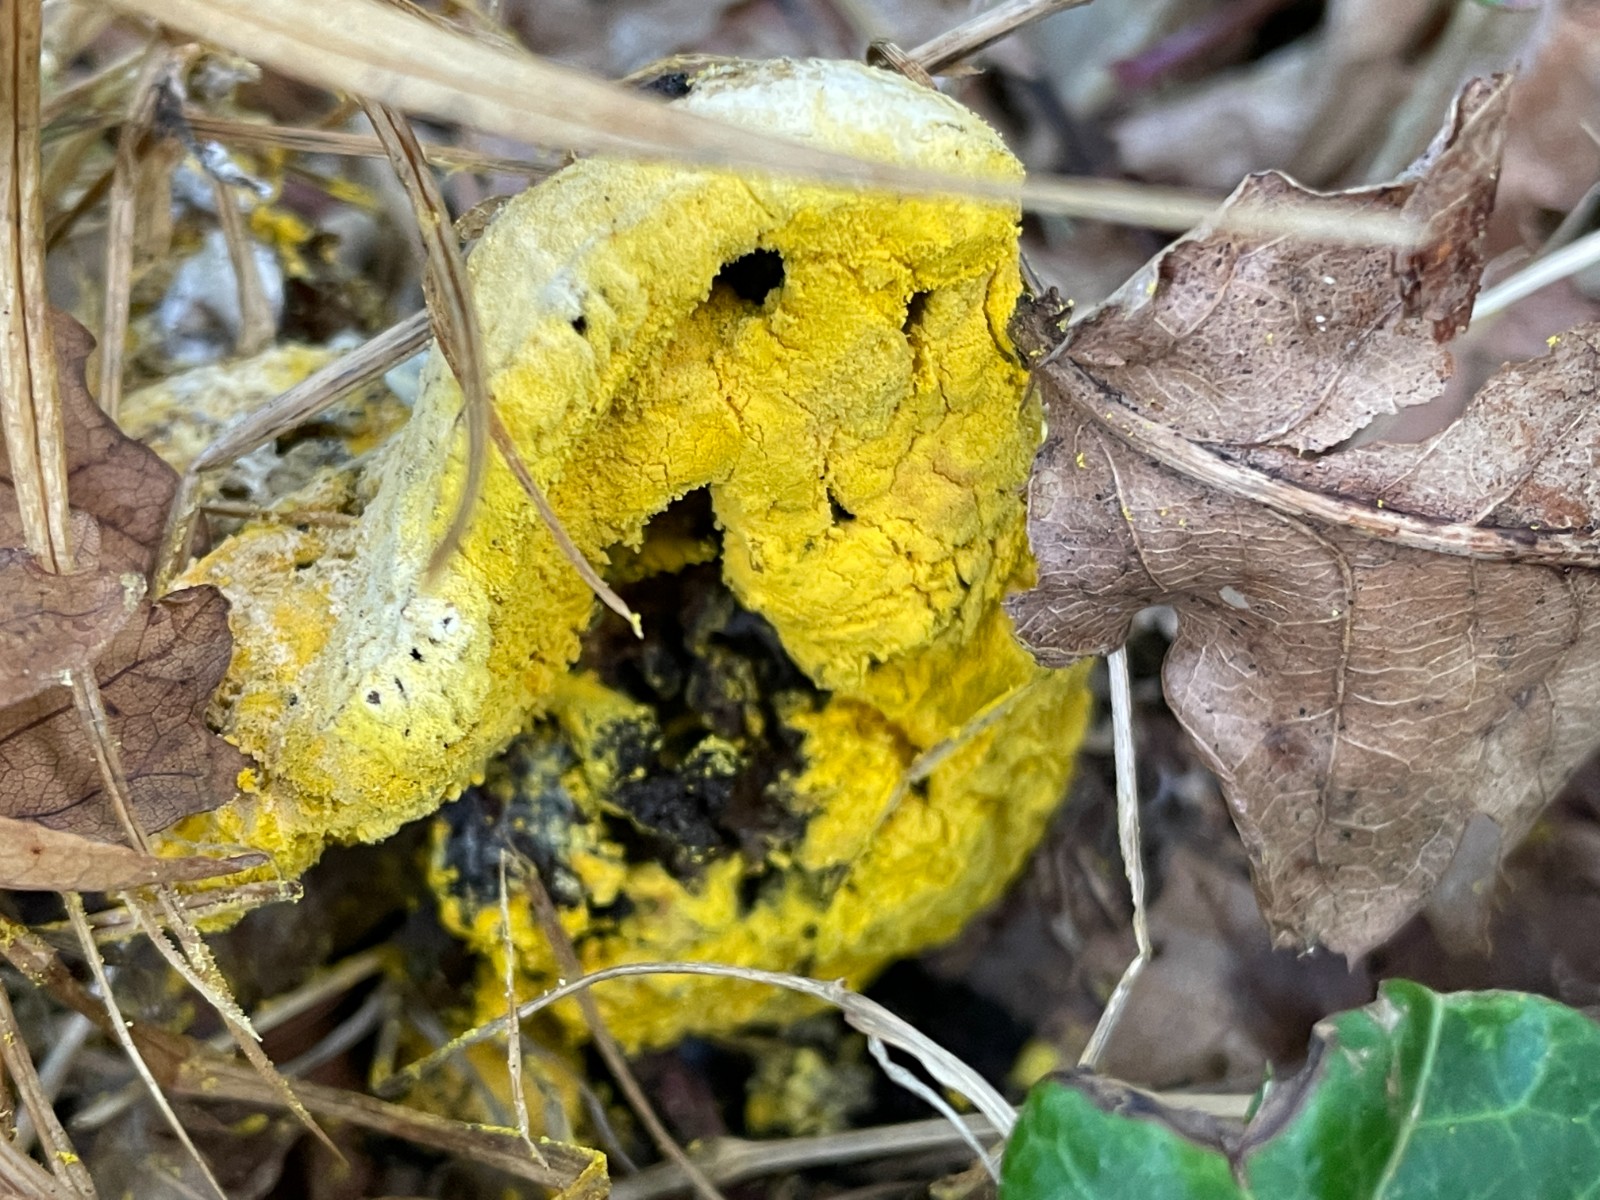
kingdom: Fungi
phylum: Ascomycota
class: Sordariomycetes
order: Hypocreales
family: Hypocreaceae
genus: Hypomyces
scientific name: Hypomyces microspermus
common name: dværgrørhat-snylteskorpe
